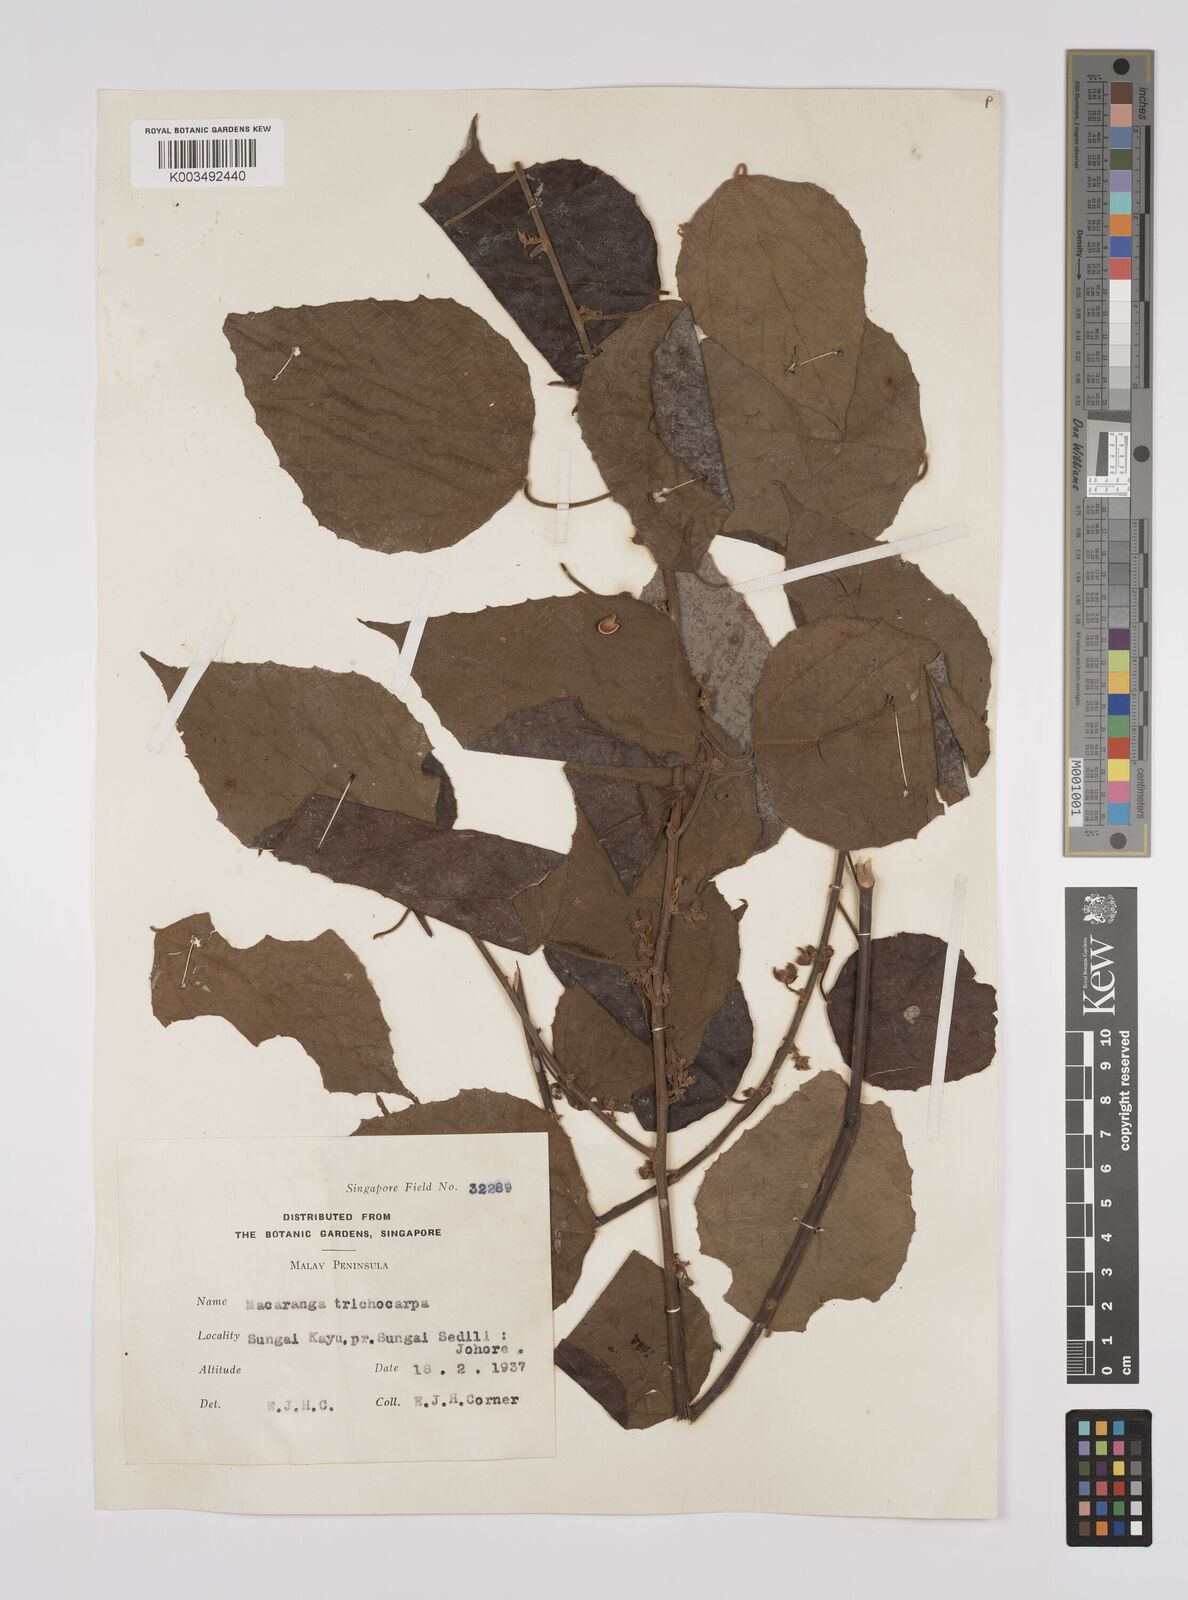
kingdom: Plantae
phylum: Tracheophyta
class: Magnoliopsida
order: Malpighiales
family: Euphorbiaceae
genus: Macaranga
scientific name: Macaranga trichocarpa
